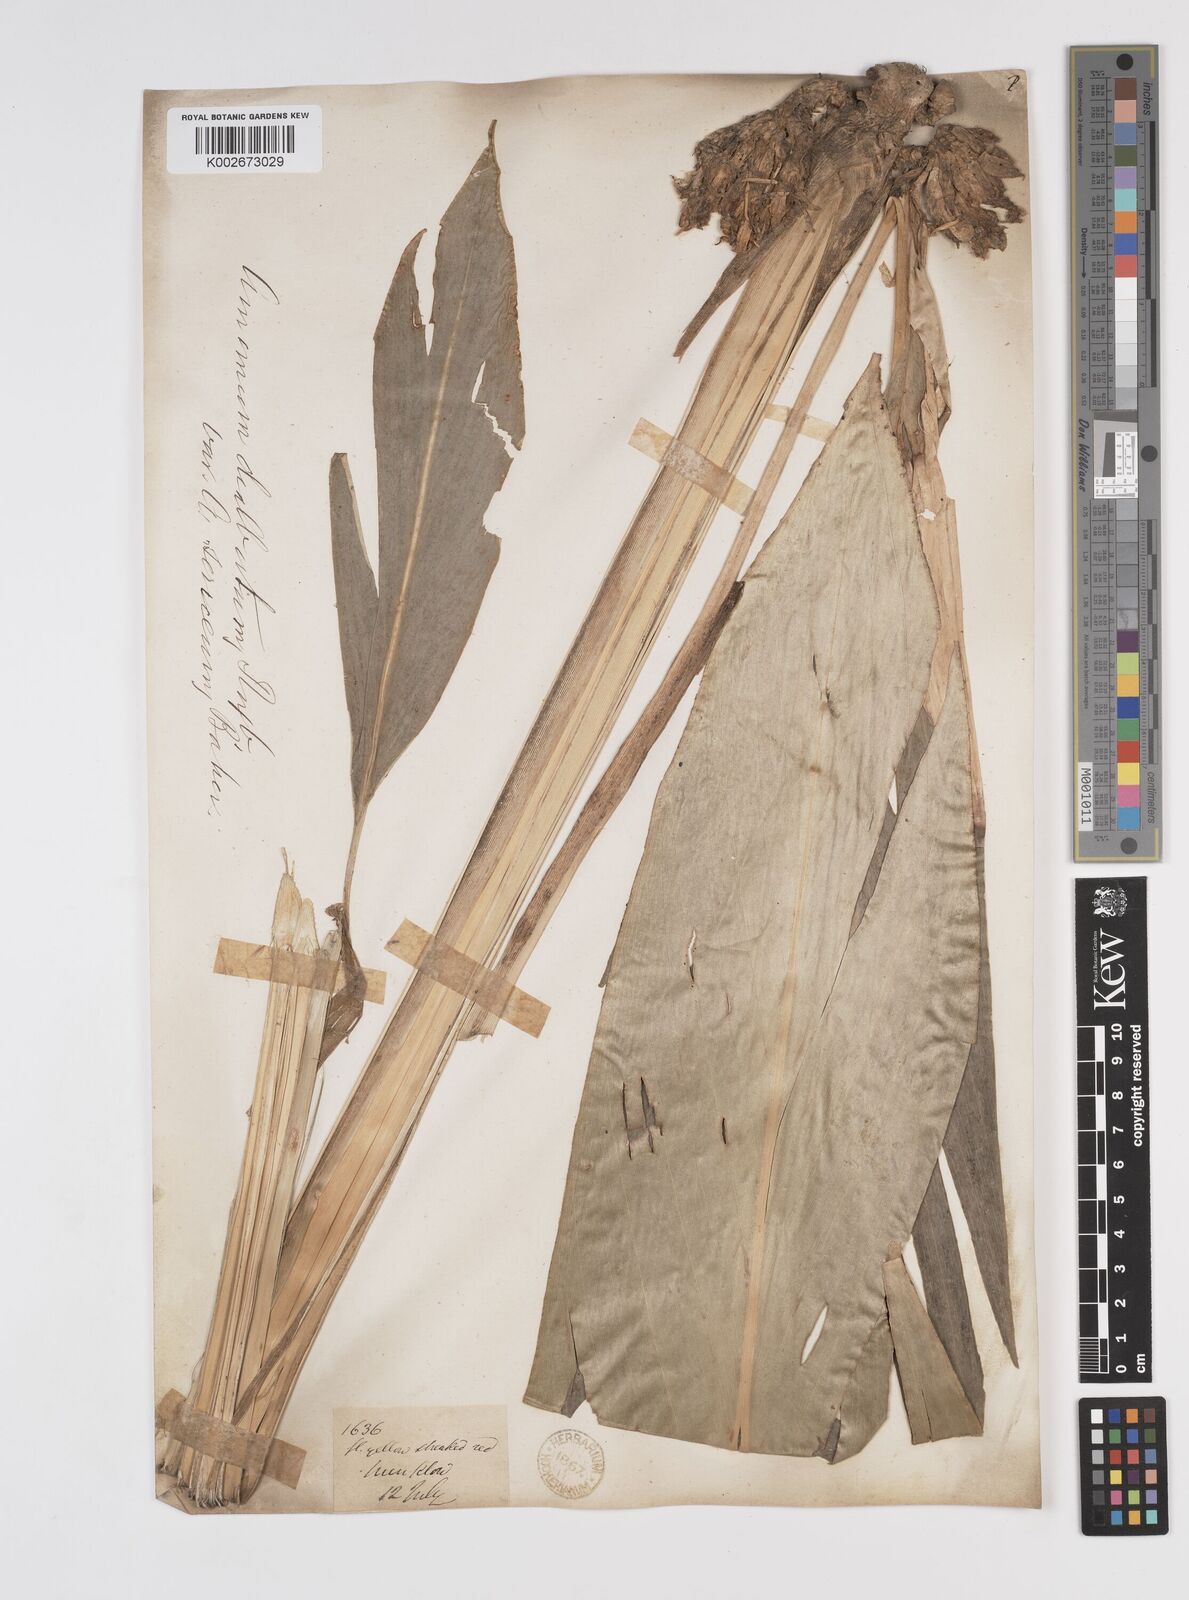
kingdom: Plantae
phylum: Tracheophyta
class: Liliopsida
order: Zingiberales
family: Zingiberaceae
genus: Amomum
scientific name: Amomum dealbatum
